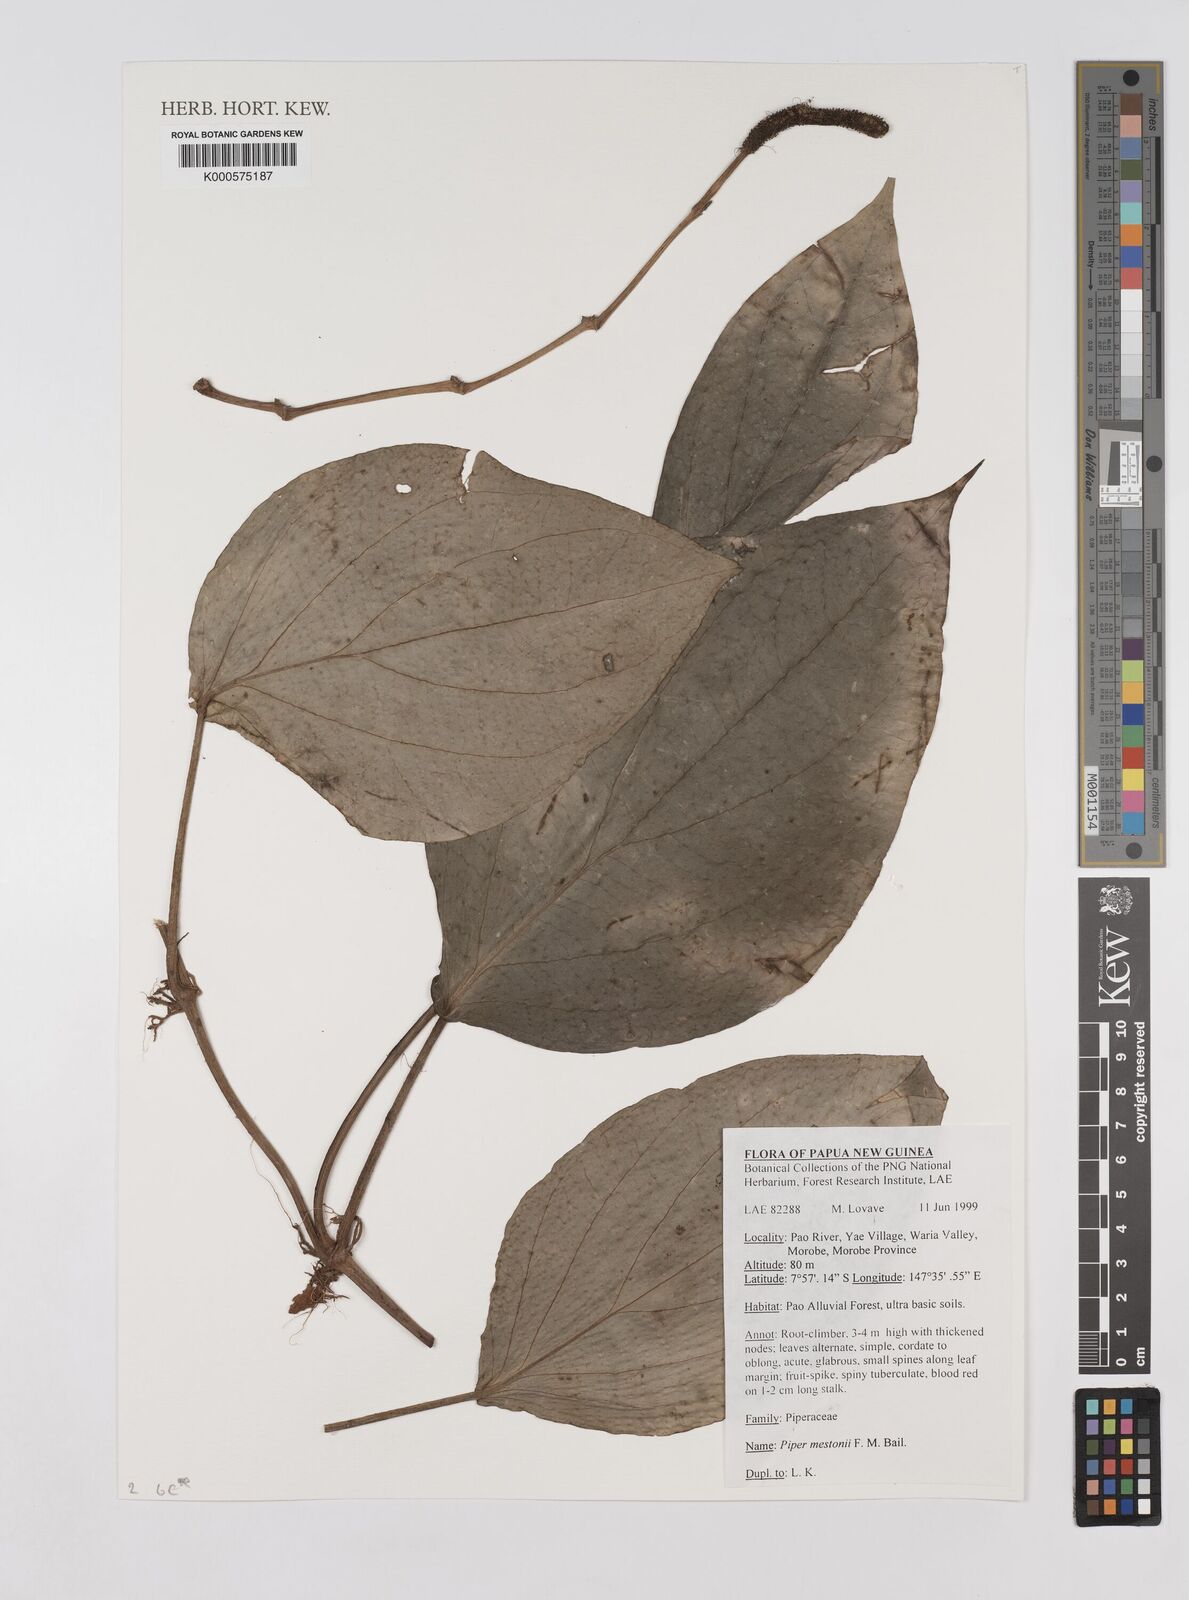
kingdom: Plantae
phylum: Tracheophyta
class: Magnoliopsida
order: Piperales
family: Piperaceae
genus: Piper
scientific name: Piper mestonii
